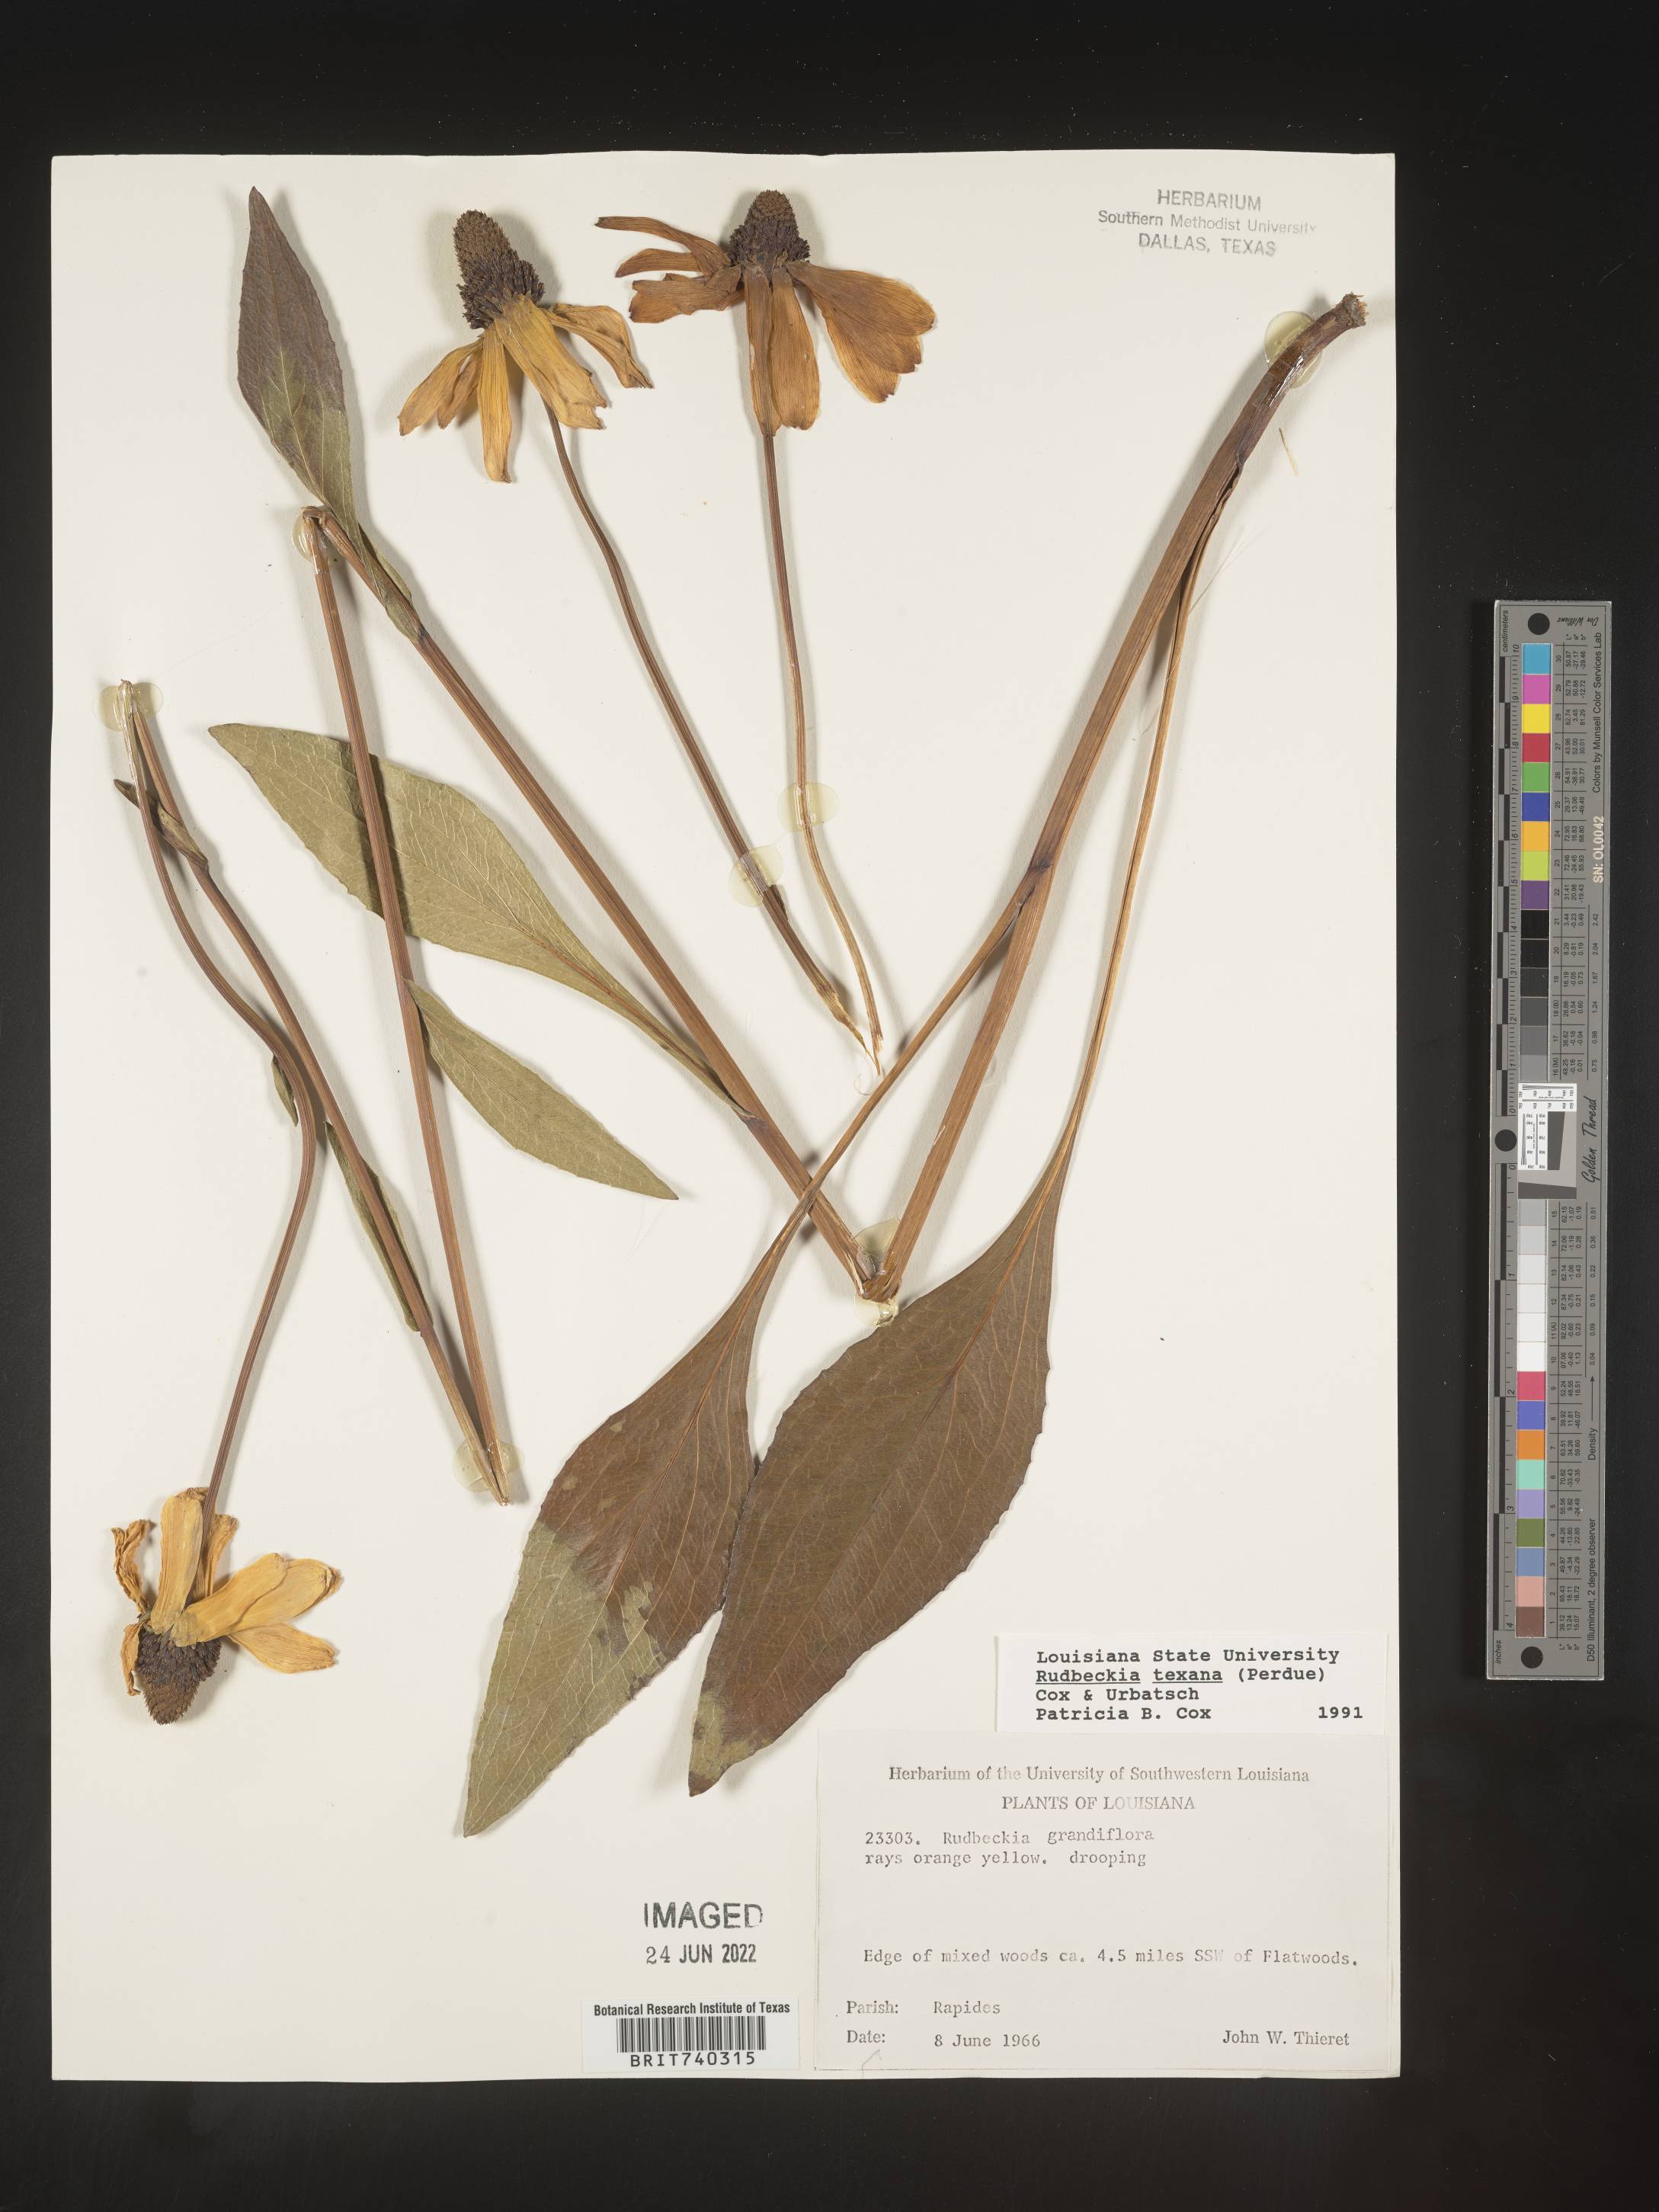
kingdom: Plantae
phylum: Tracheophyta
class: Magnoliopsida
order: Asterales
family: Asteraceae
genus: Rudbeckia
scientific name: Rudbeckia texana
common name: Texas coneflower
